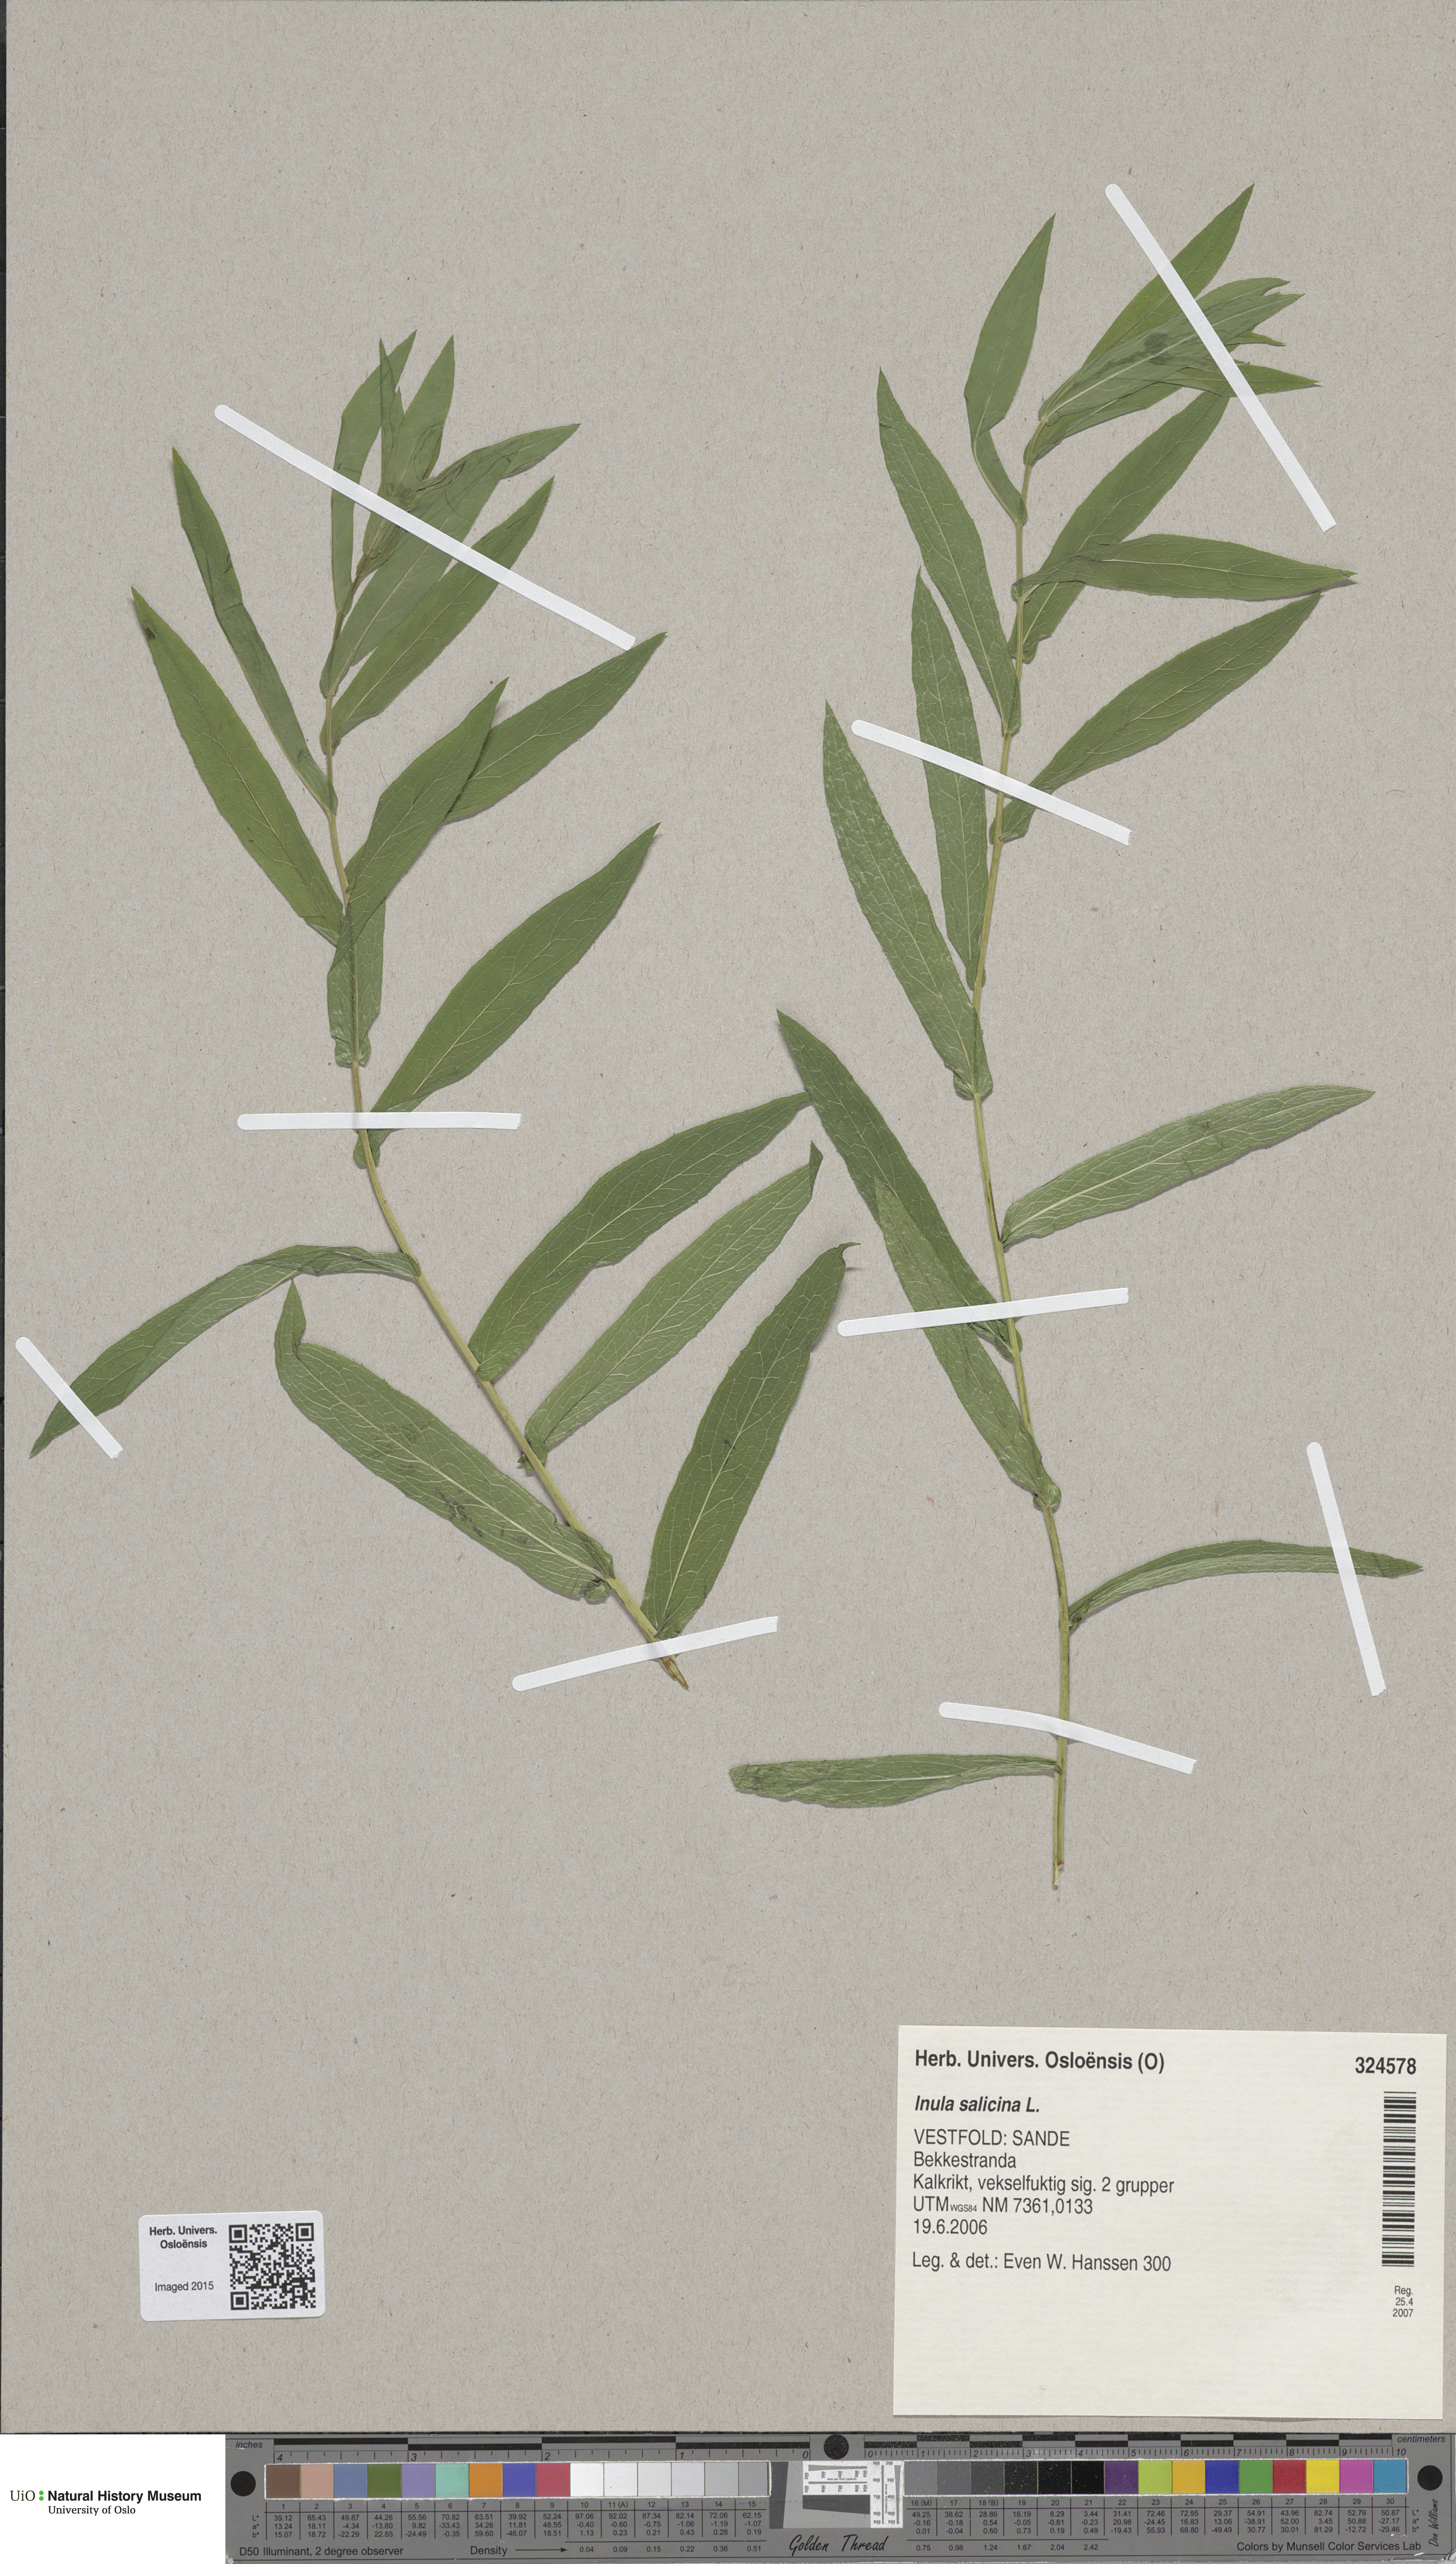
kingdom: Plantae
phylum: Tracheophyta
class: Magnoliopsida
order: Asterales
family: Asteraceae
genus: Pentanema
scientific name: Pentanema salicinum
